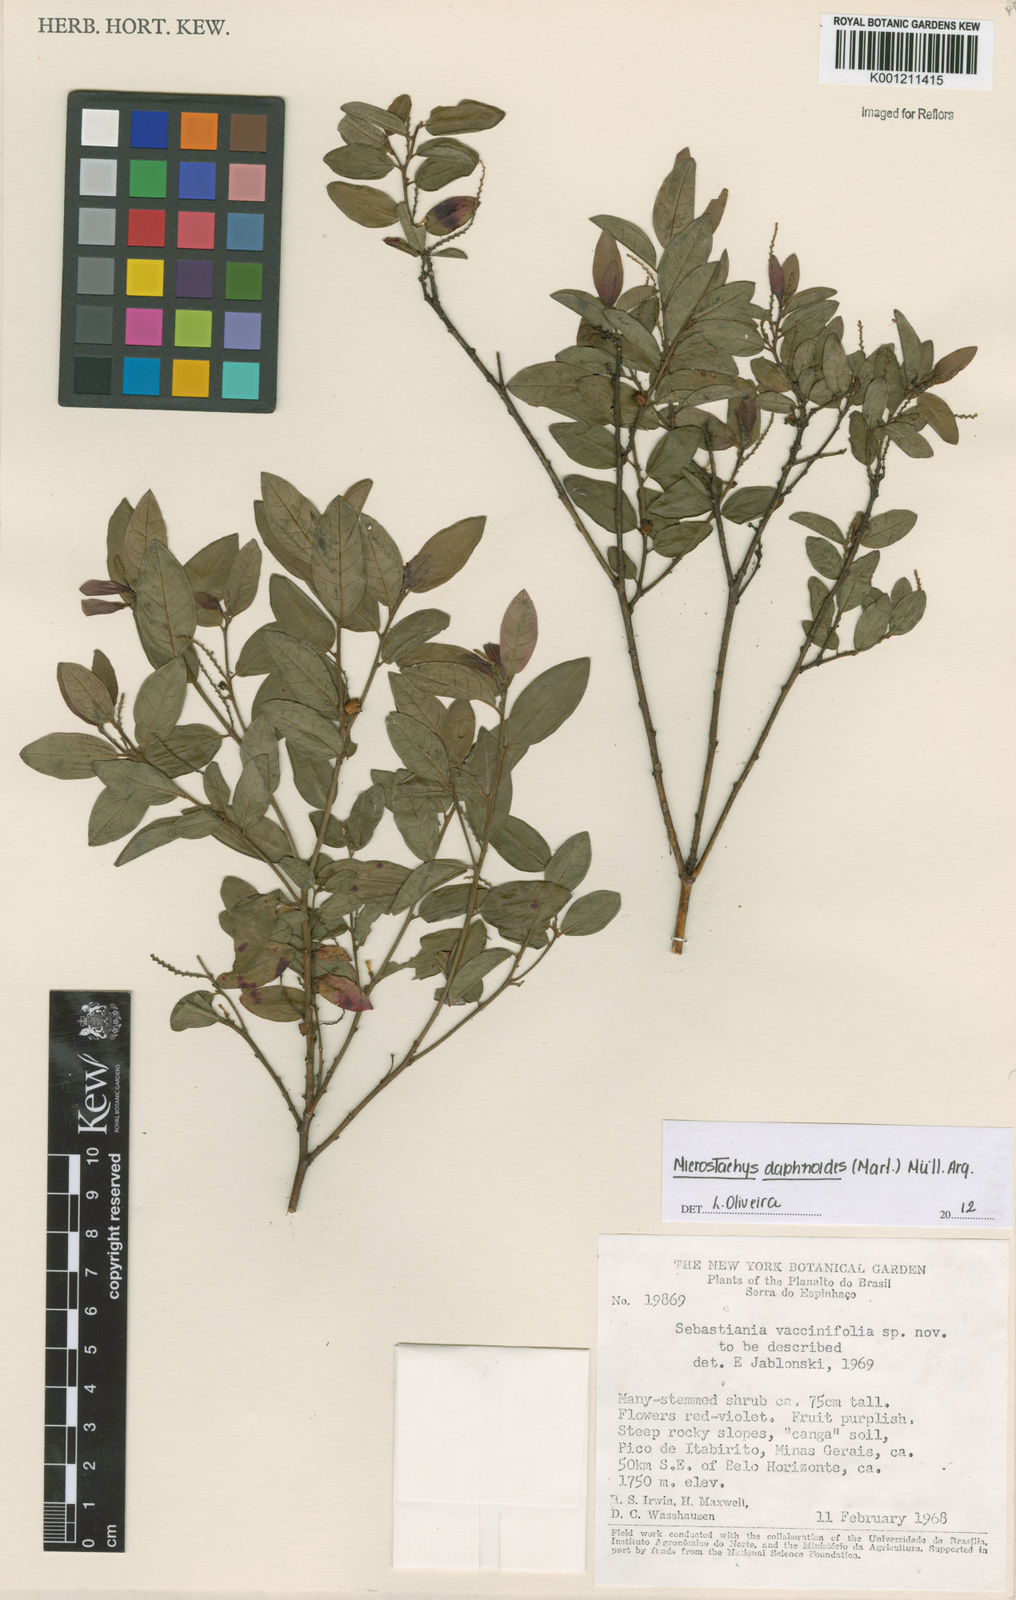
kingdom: Plantae
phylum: Tracheophyta
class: Magnoliopsida
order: Malpighiales
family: Euphorbiaceae
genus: Microstachys
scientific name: Microstachys
